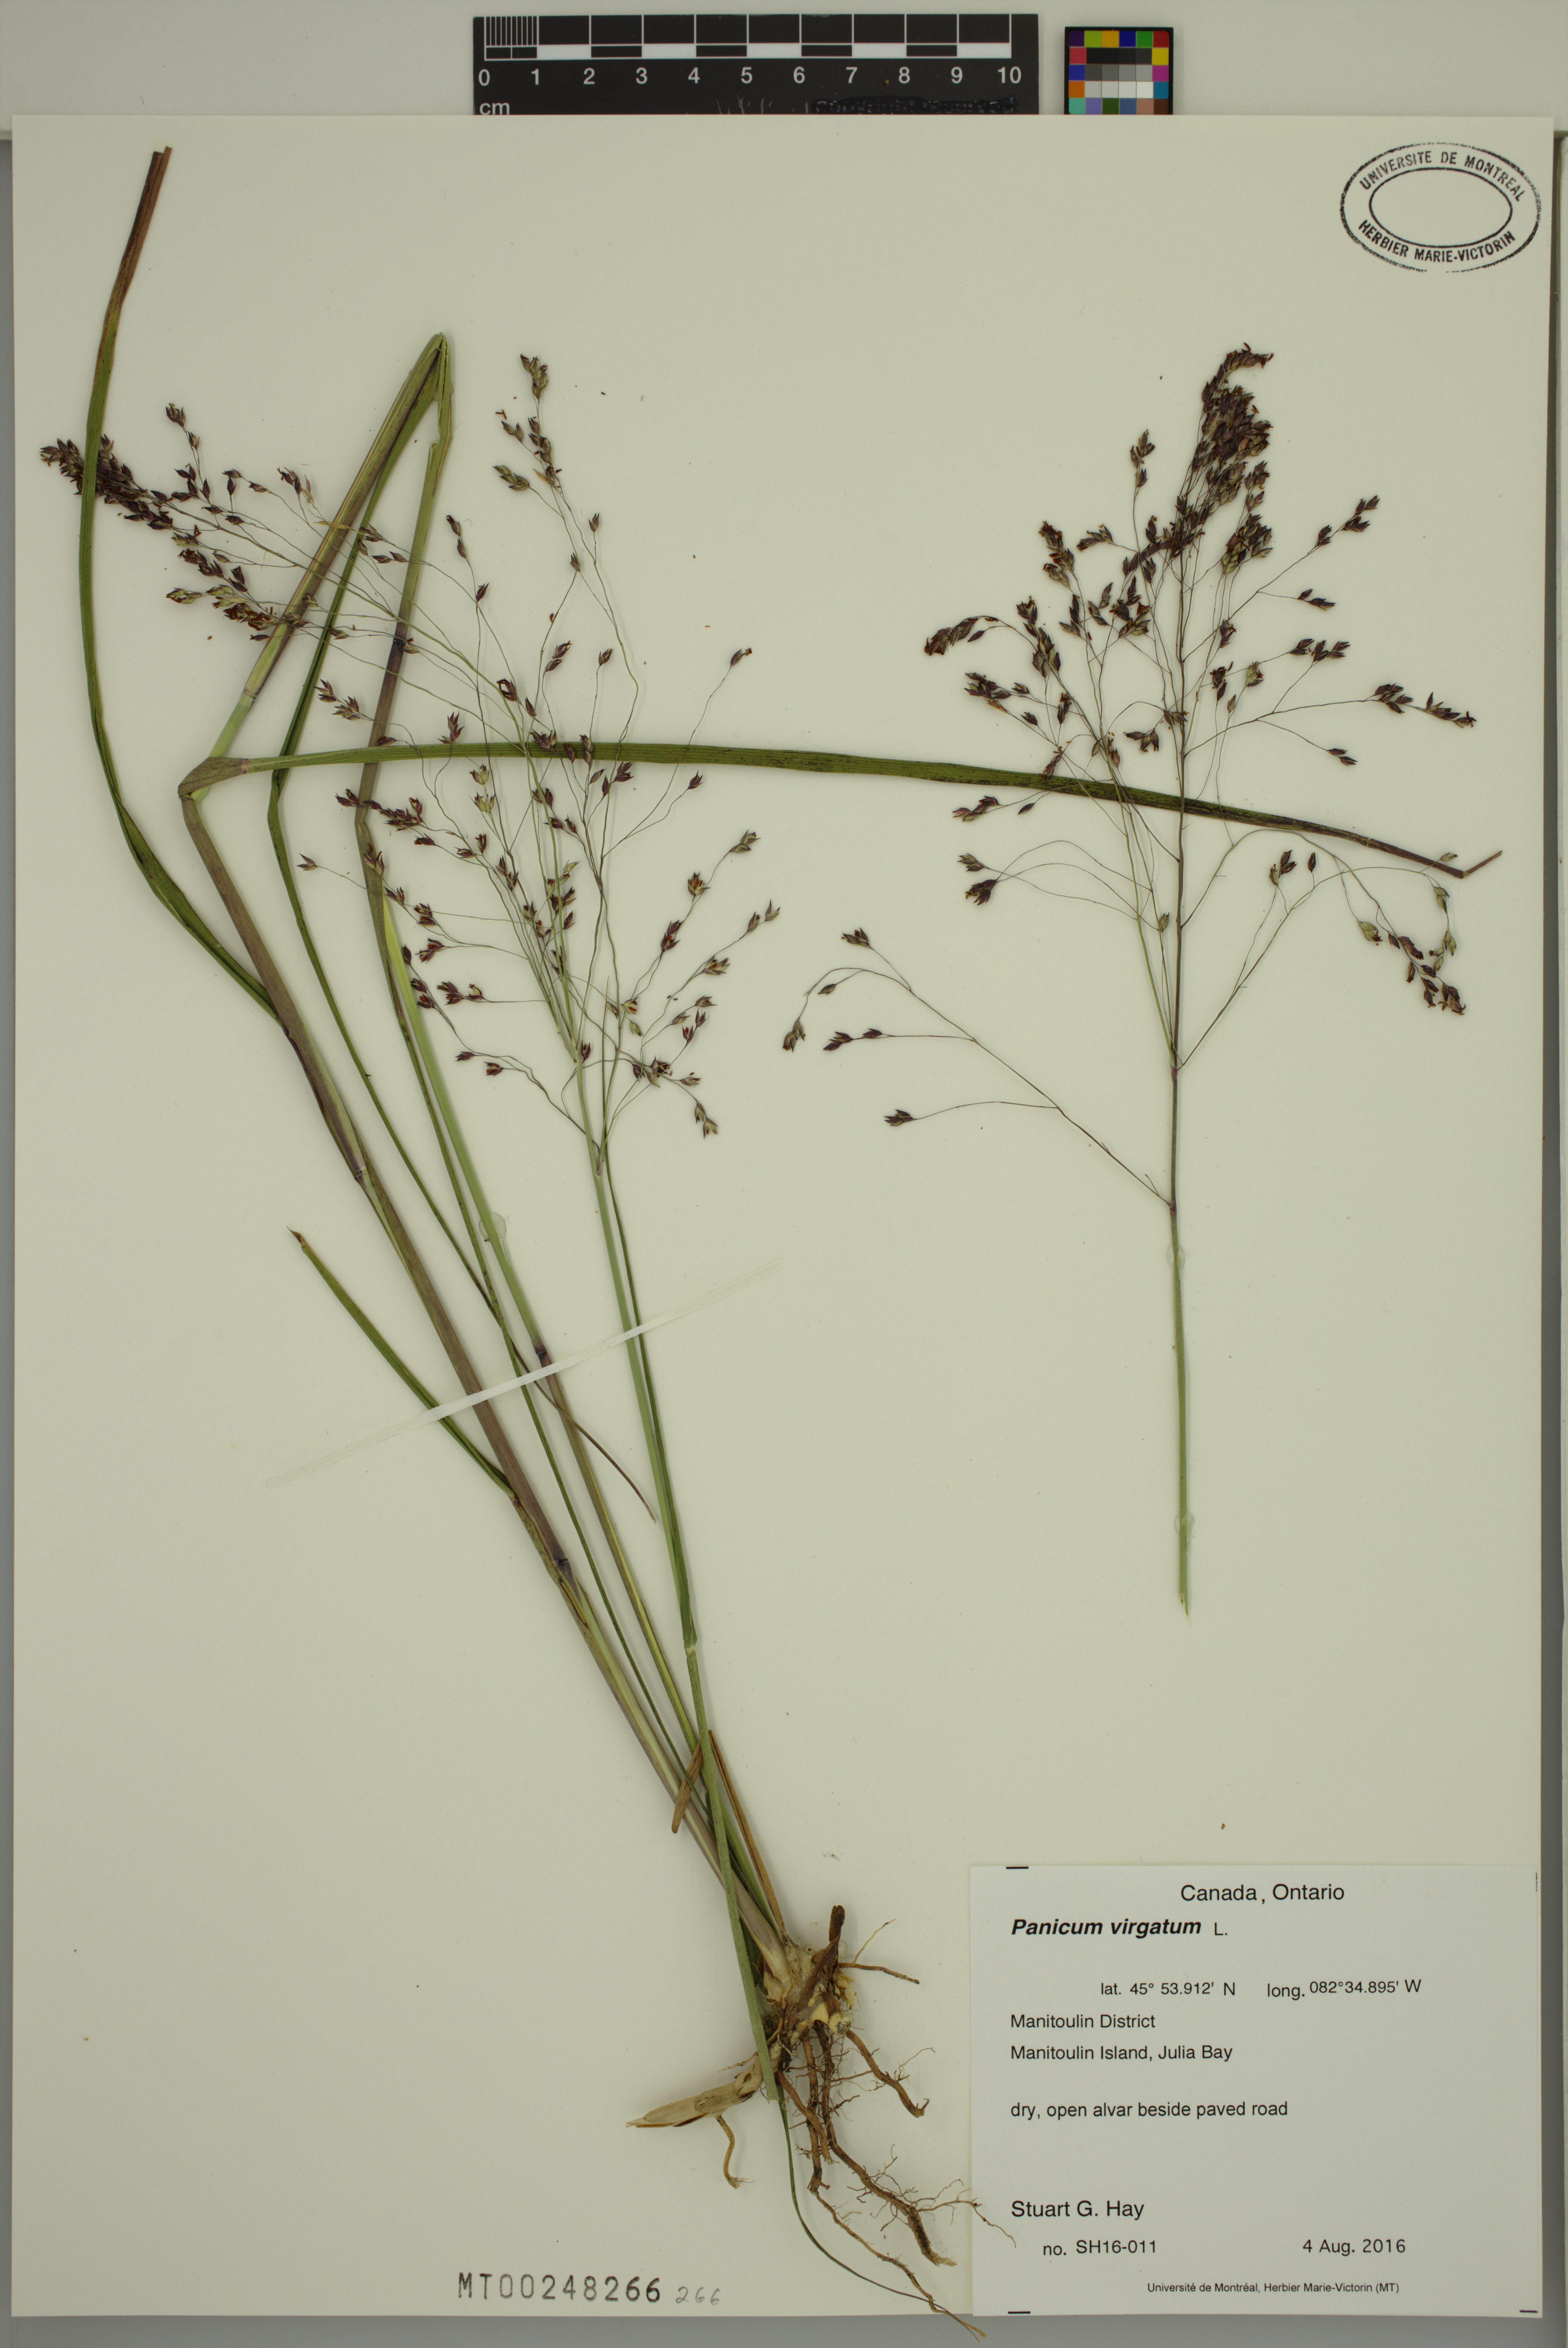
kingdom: Plantae
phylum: Tracheophyta
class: Liliopsida
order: Poales
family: Poaceae
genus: Panicum
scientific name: Panicum virgatum
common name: Switchgrass
